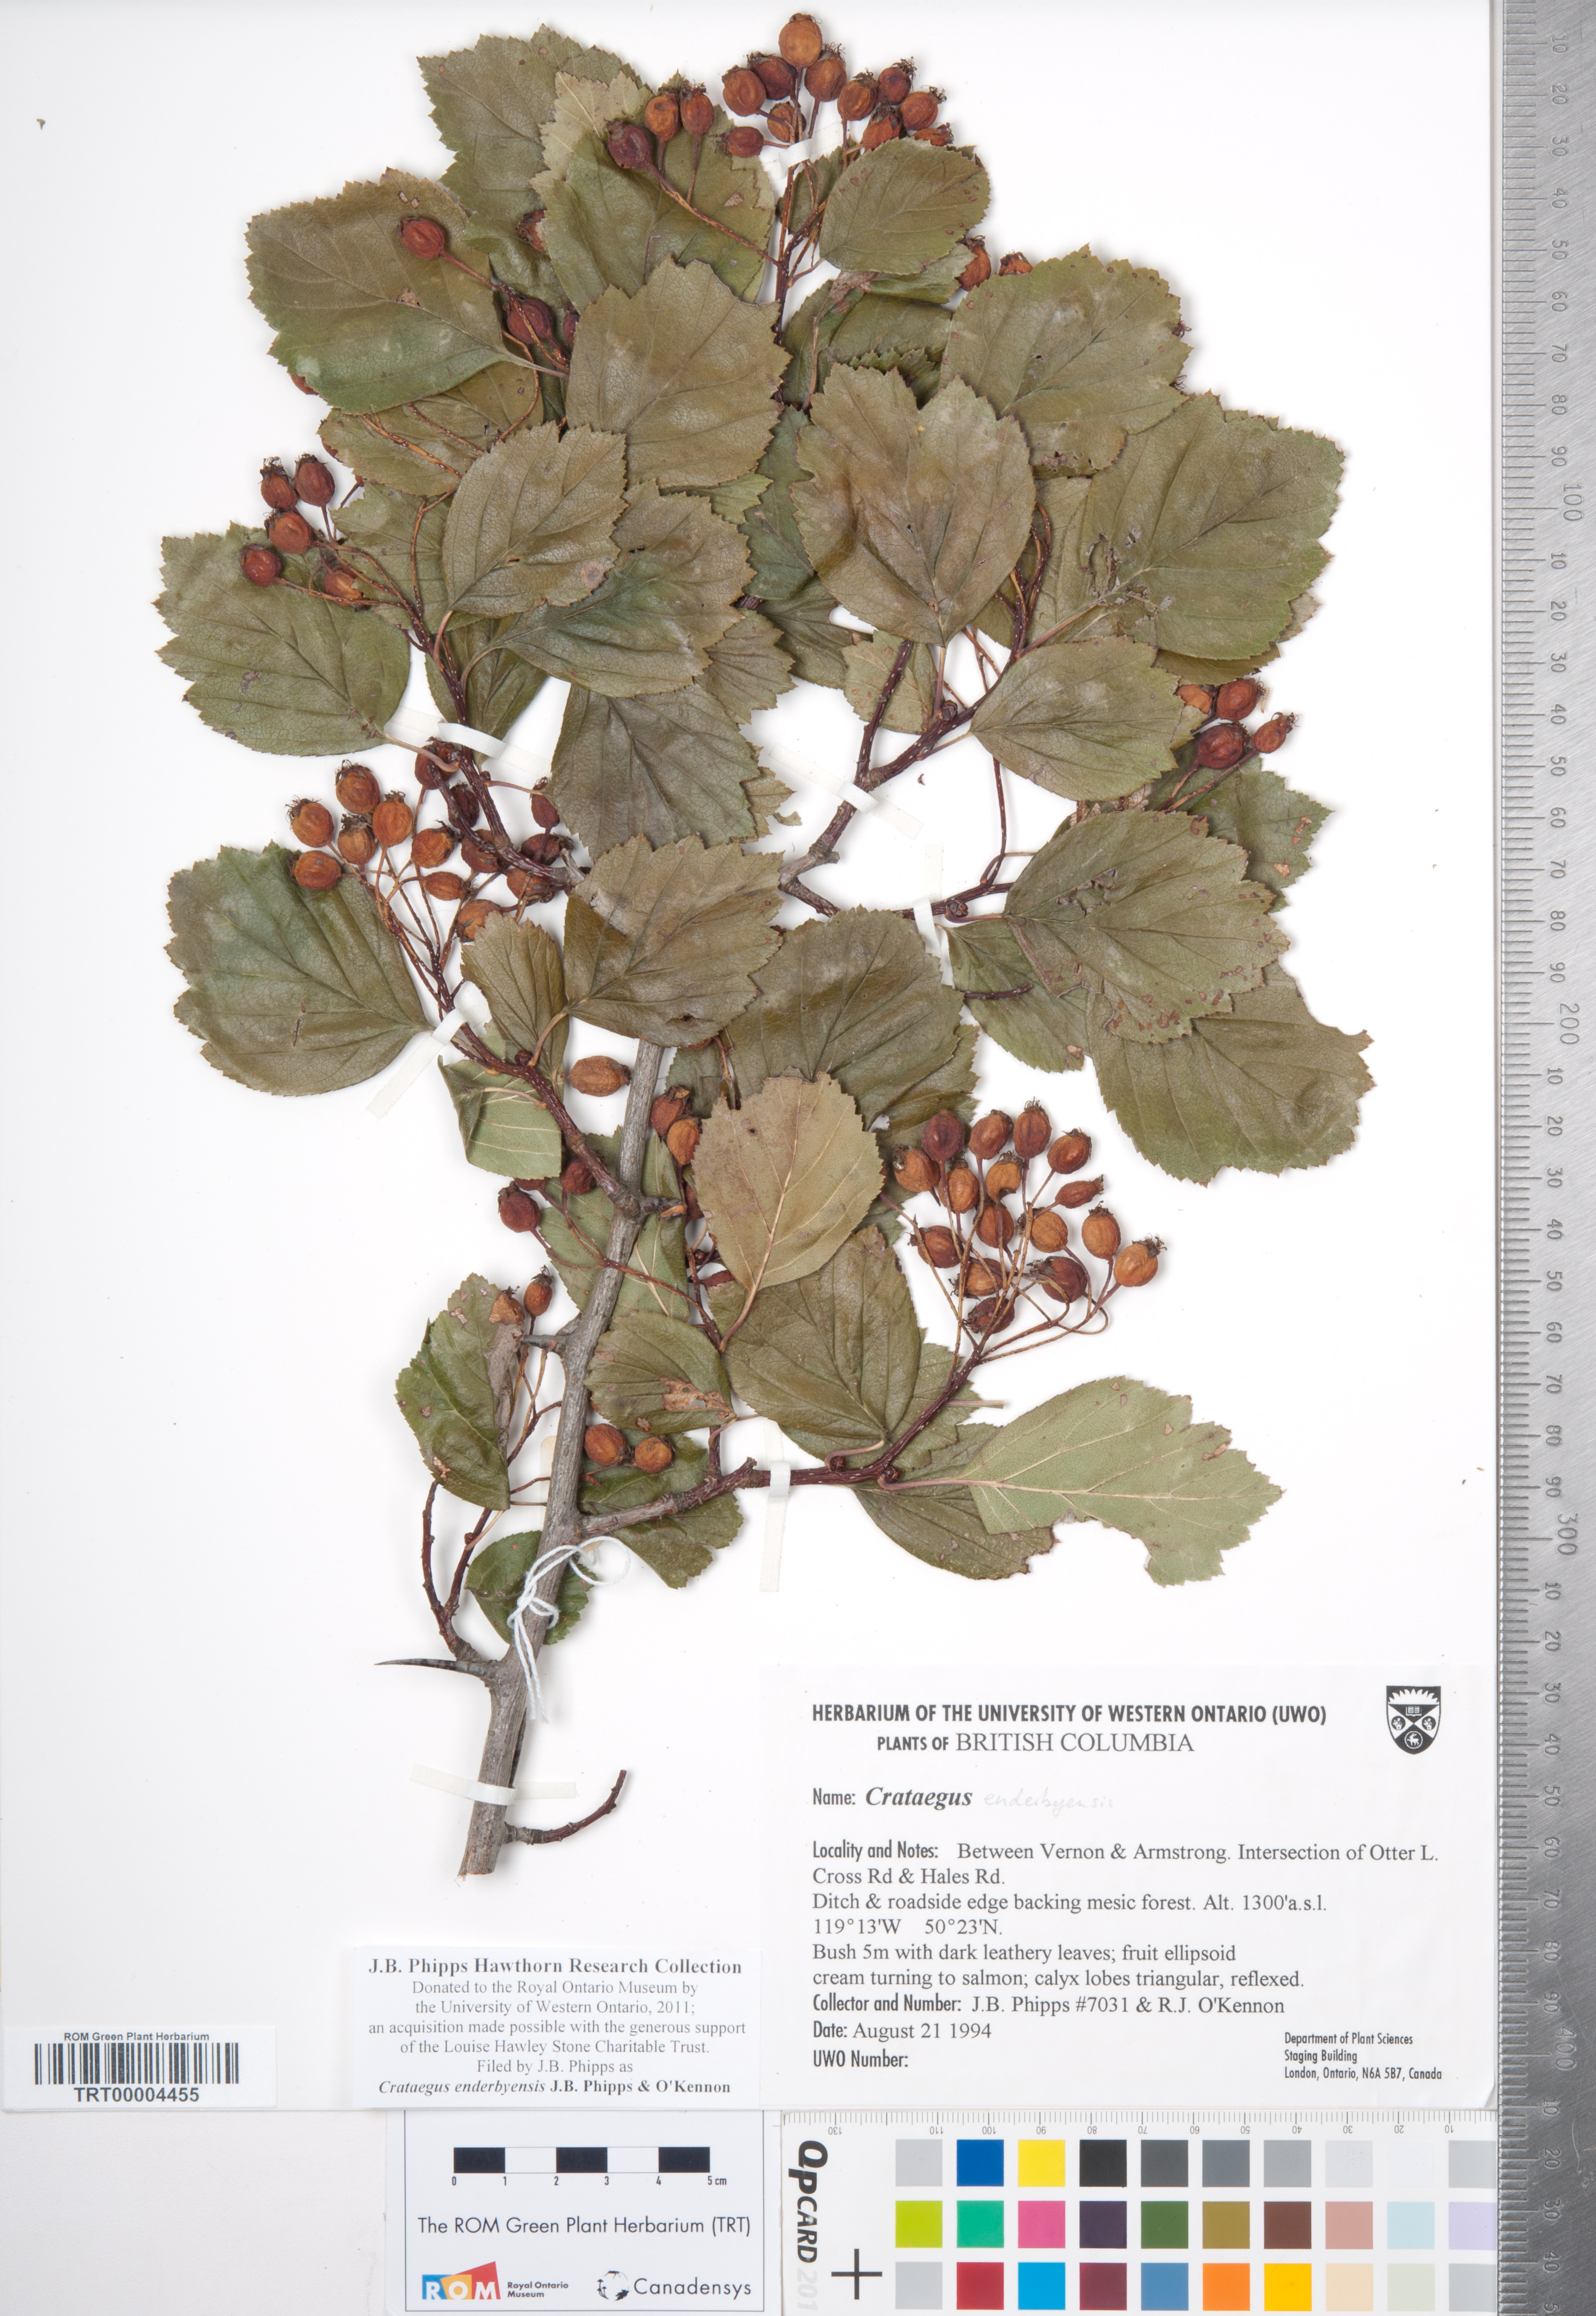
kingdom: Plantae
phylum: Tracheophyta
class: Magnoliopsida
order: Rosales
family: Rosaceae
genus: Crataegus
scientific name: Crataegus enderbyensis
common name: Enderby hawthorn
